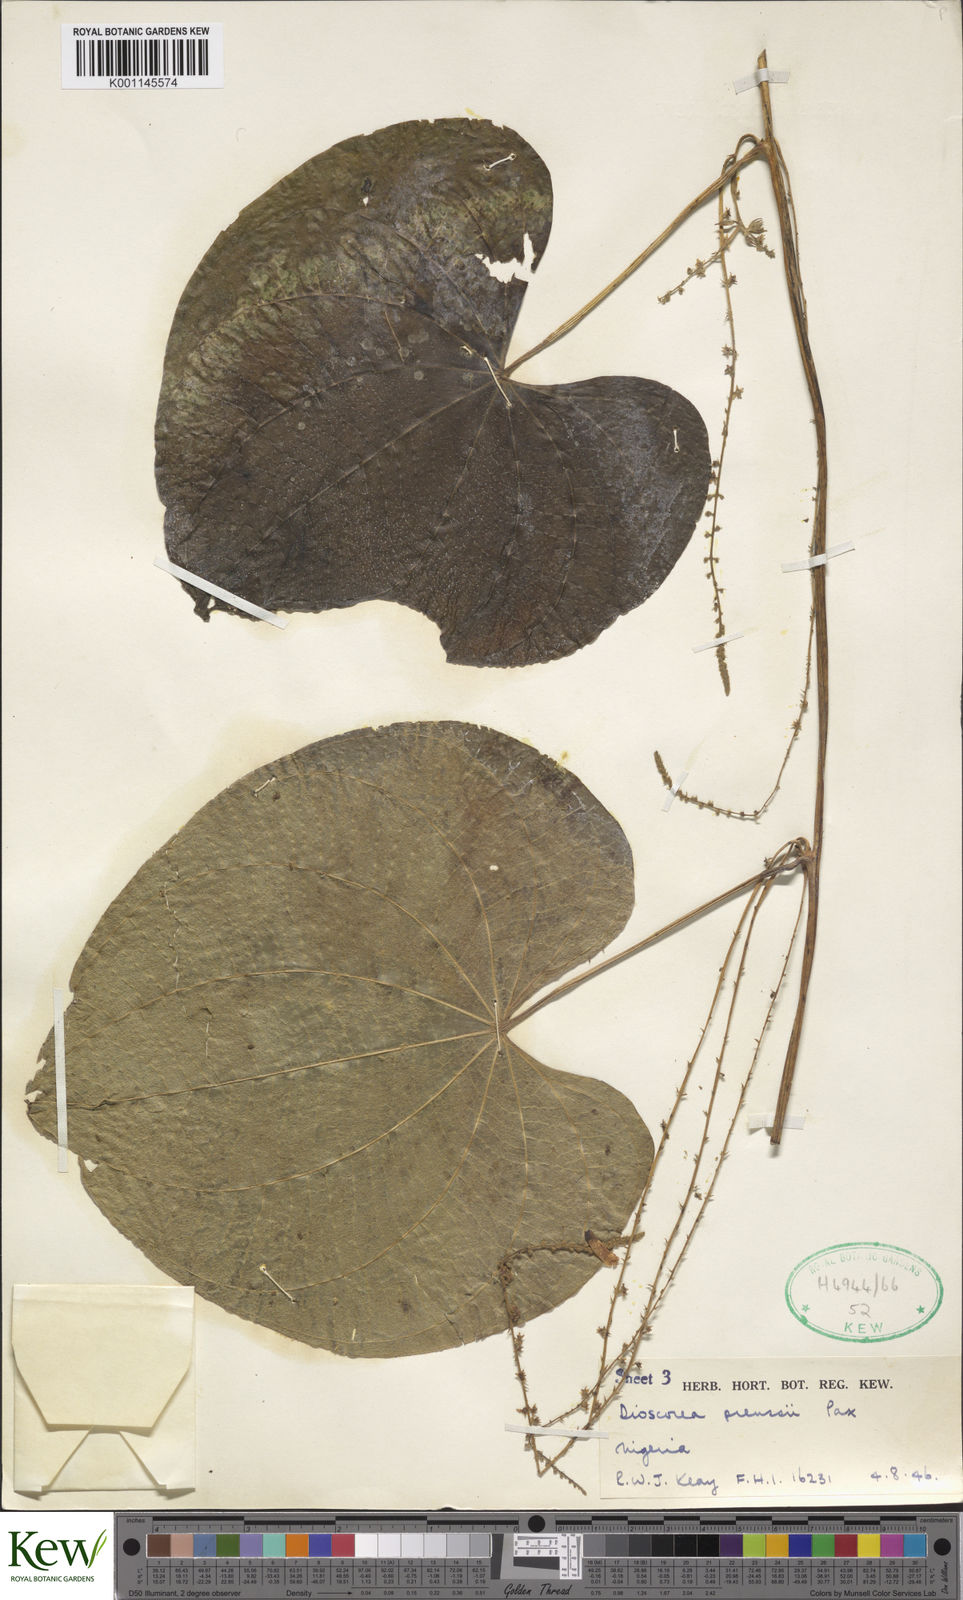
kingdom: Plantae
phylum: Tracheophyta
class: Liliopsida
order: Dioscoreales
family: Dioscoreaceae
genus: Dioscorea
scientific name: Dioscorea preussii
